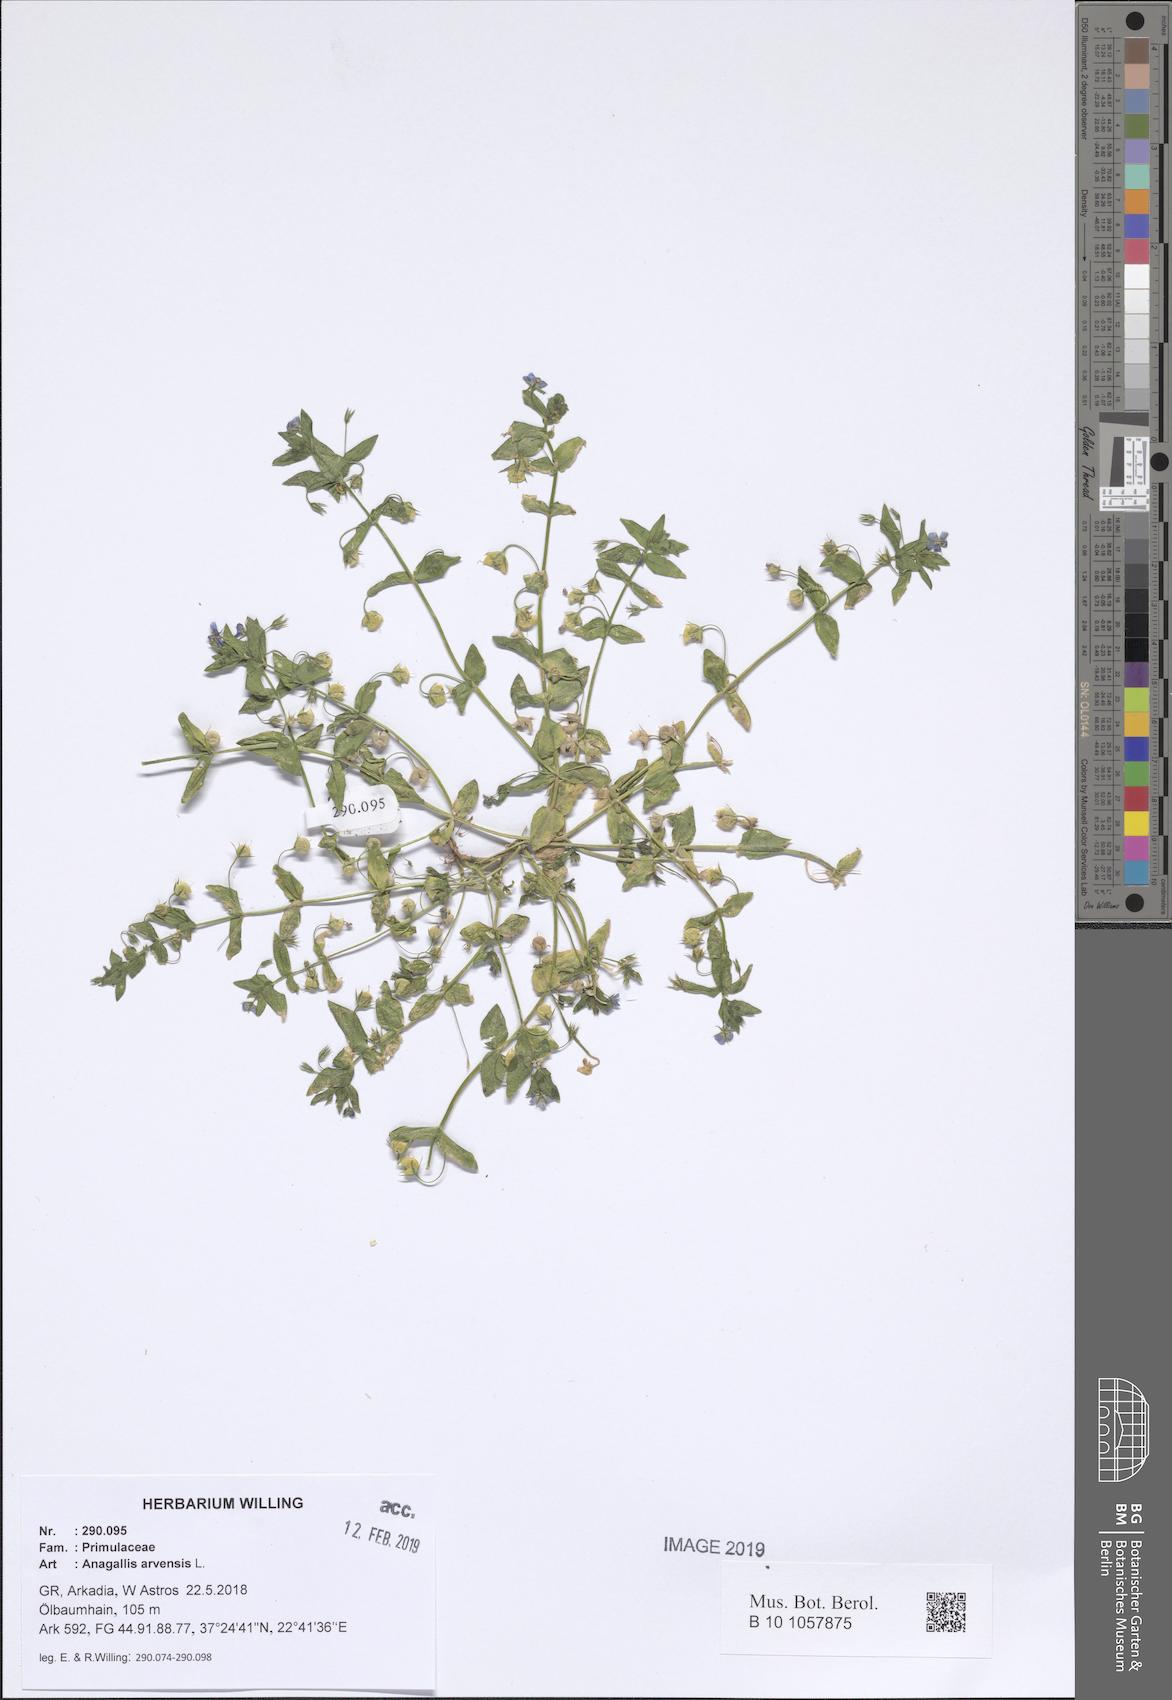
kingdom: Plantae
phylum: Tracheophyta
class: Magnoliopsida
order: Ericales
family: Primulaceae
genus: Lysimachia
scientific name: Lysimachia arvensis
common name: Scarlet pimpernel
